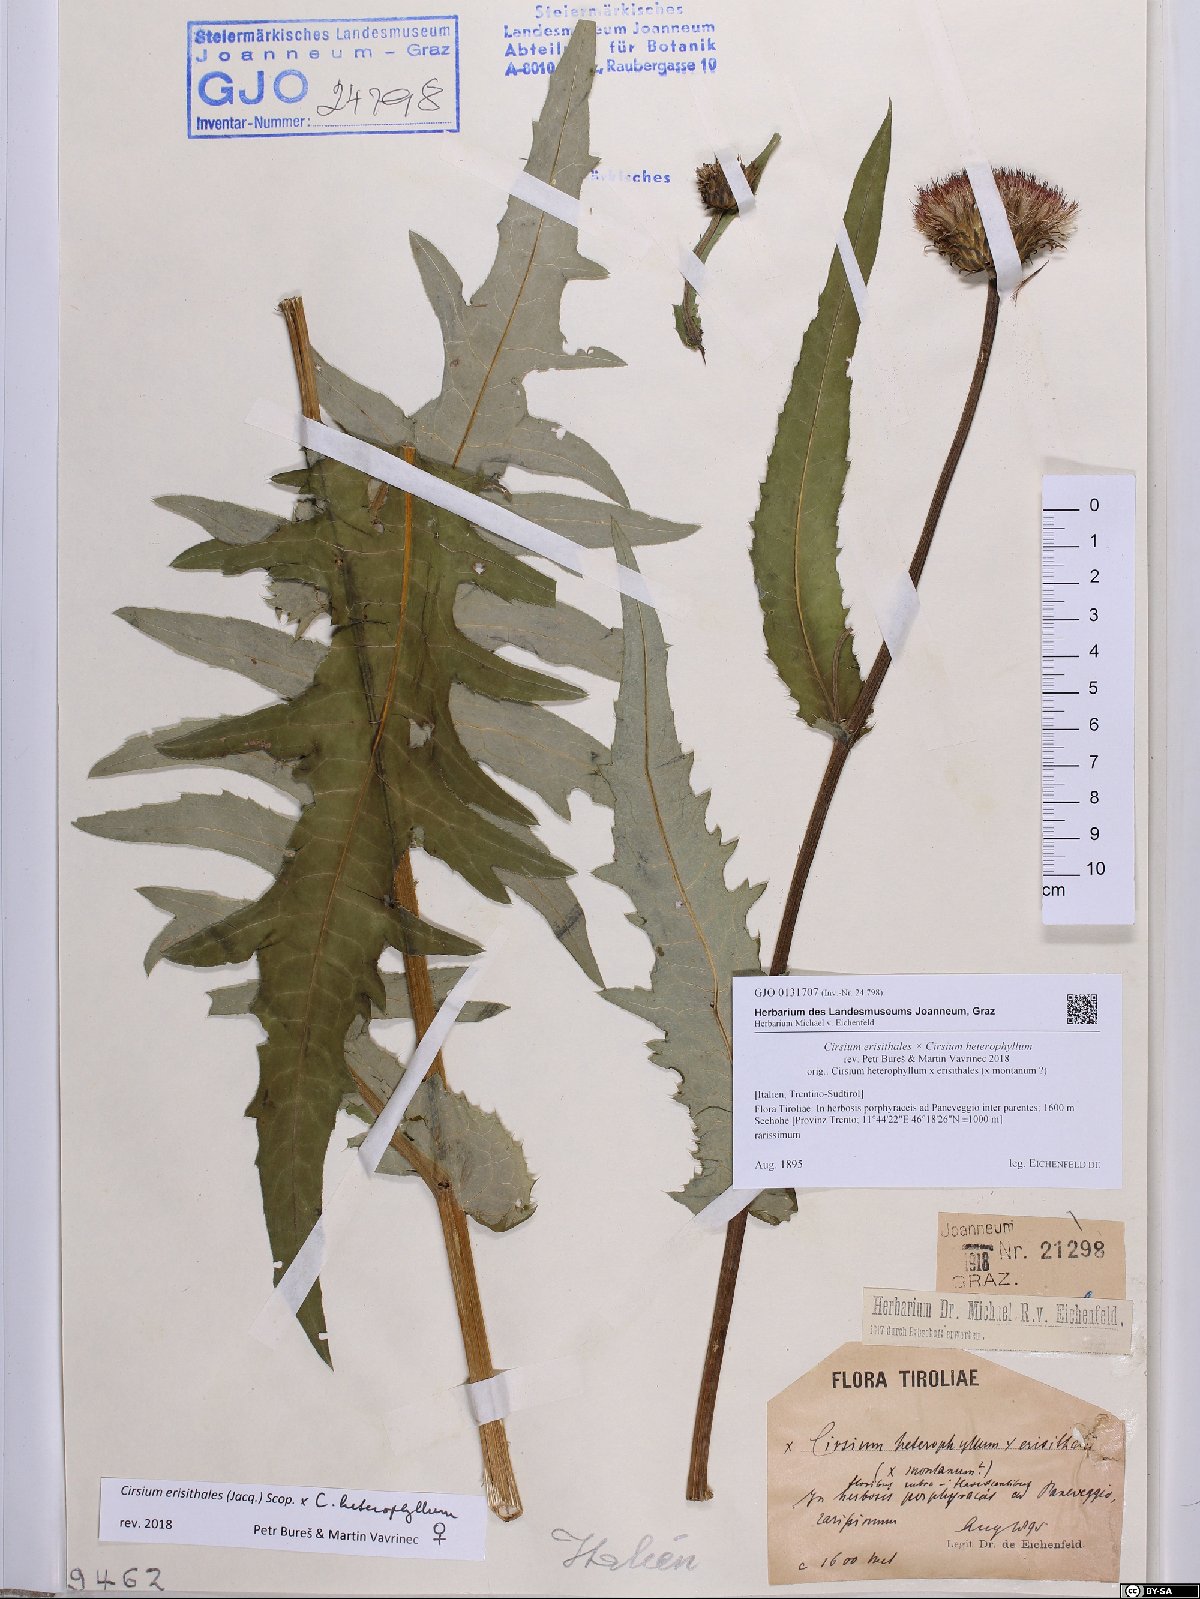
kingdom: Plantae
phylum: Tracheophyta
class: Magnoliopsida
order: Asterales
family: Asteraceae
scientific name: Asteraceae
